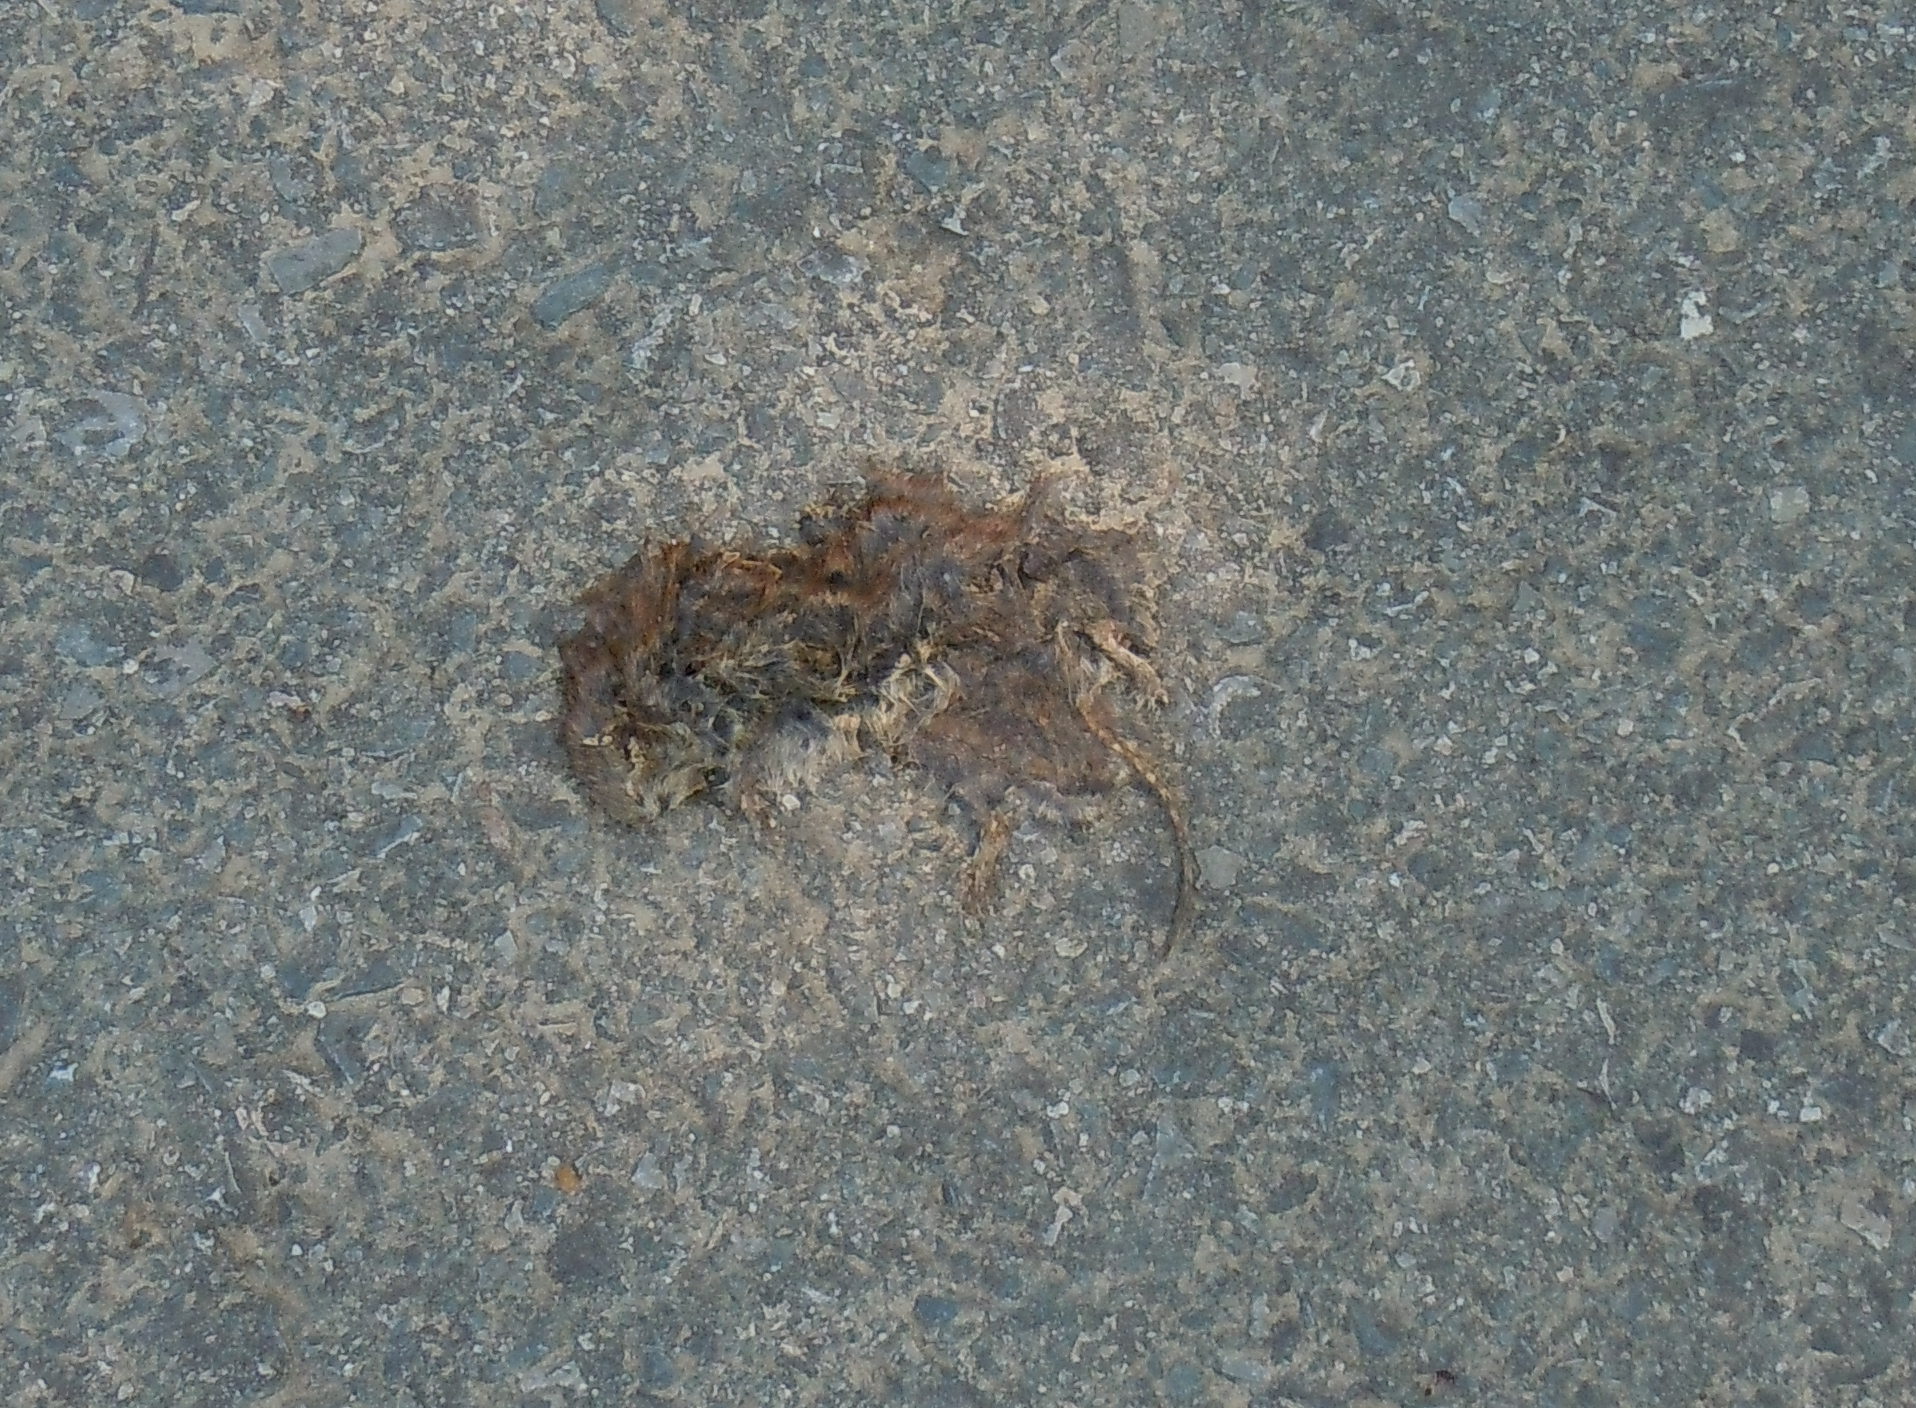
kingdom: Animalia
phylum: Chordata
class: Mammalia
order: Rodentia
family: Cricetidae
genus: Myodes
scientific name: Myodes glareolus
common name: Bank vole
